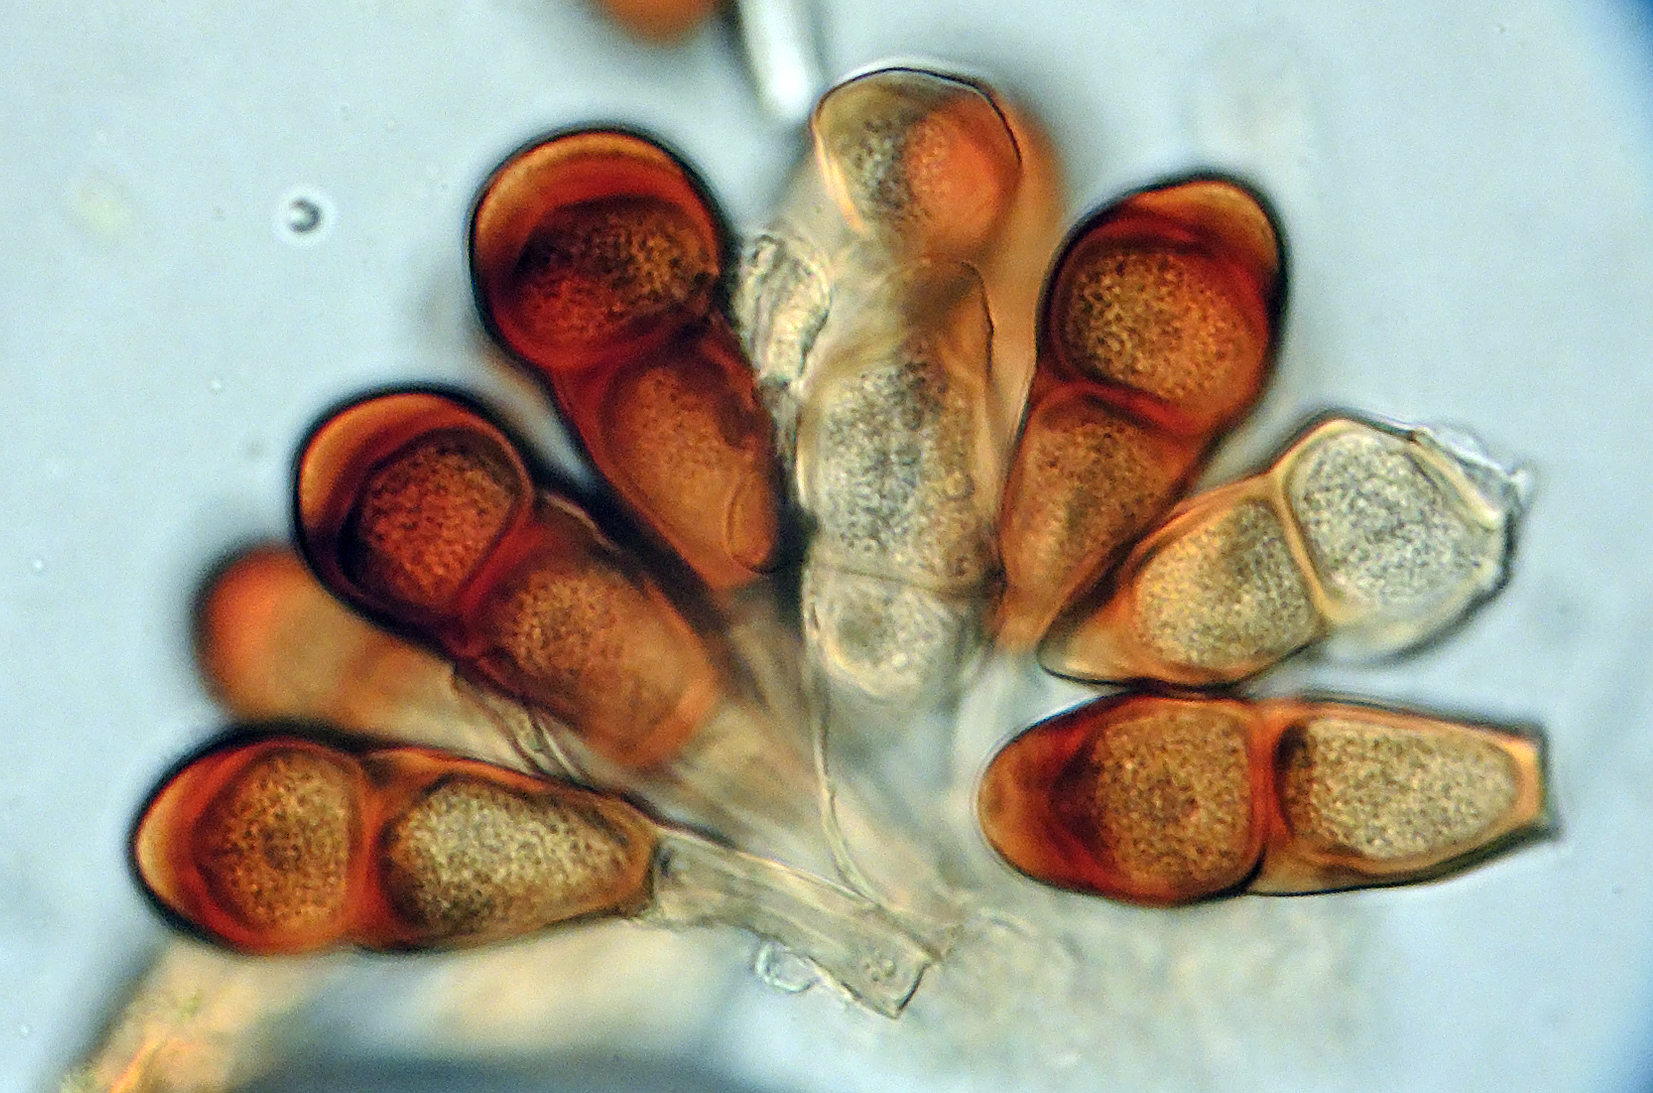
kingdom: Fungi
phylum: Basidiomycota
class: Pucciniomycetes
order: Pucciniales
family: Pucciniaceae
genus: Puccinia
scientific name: Puccinia polygoni-amphibii
